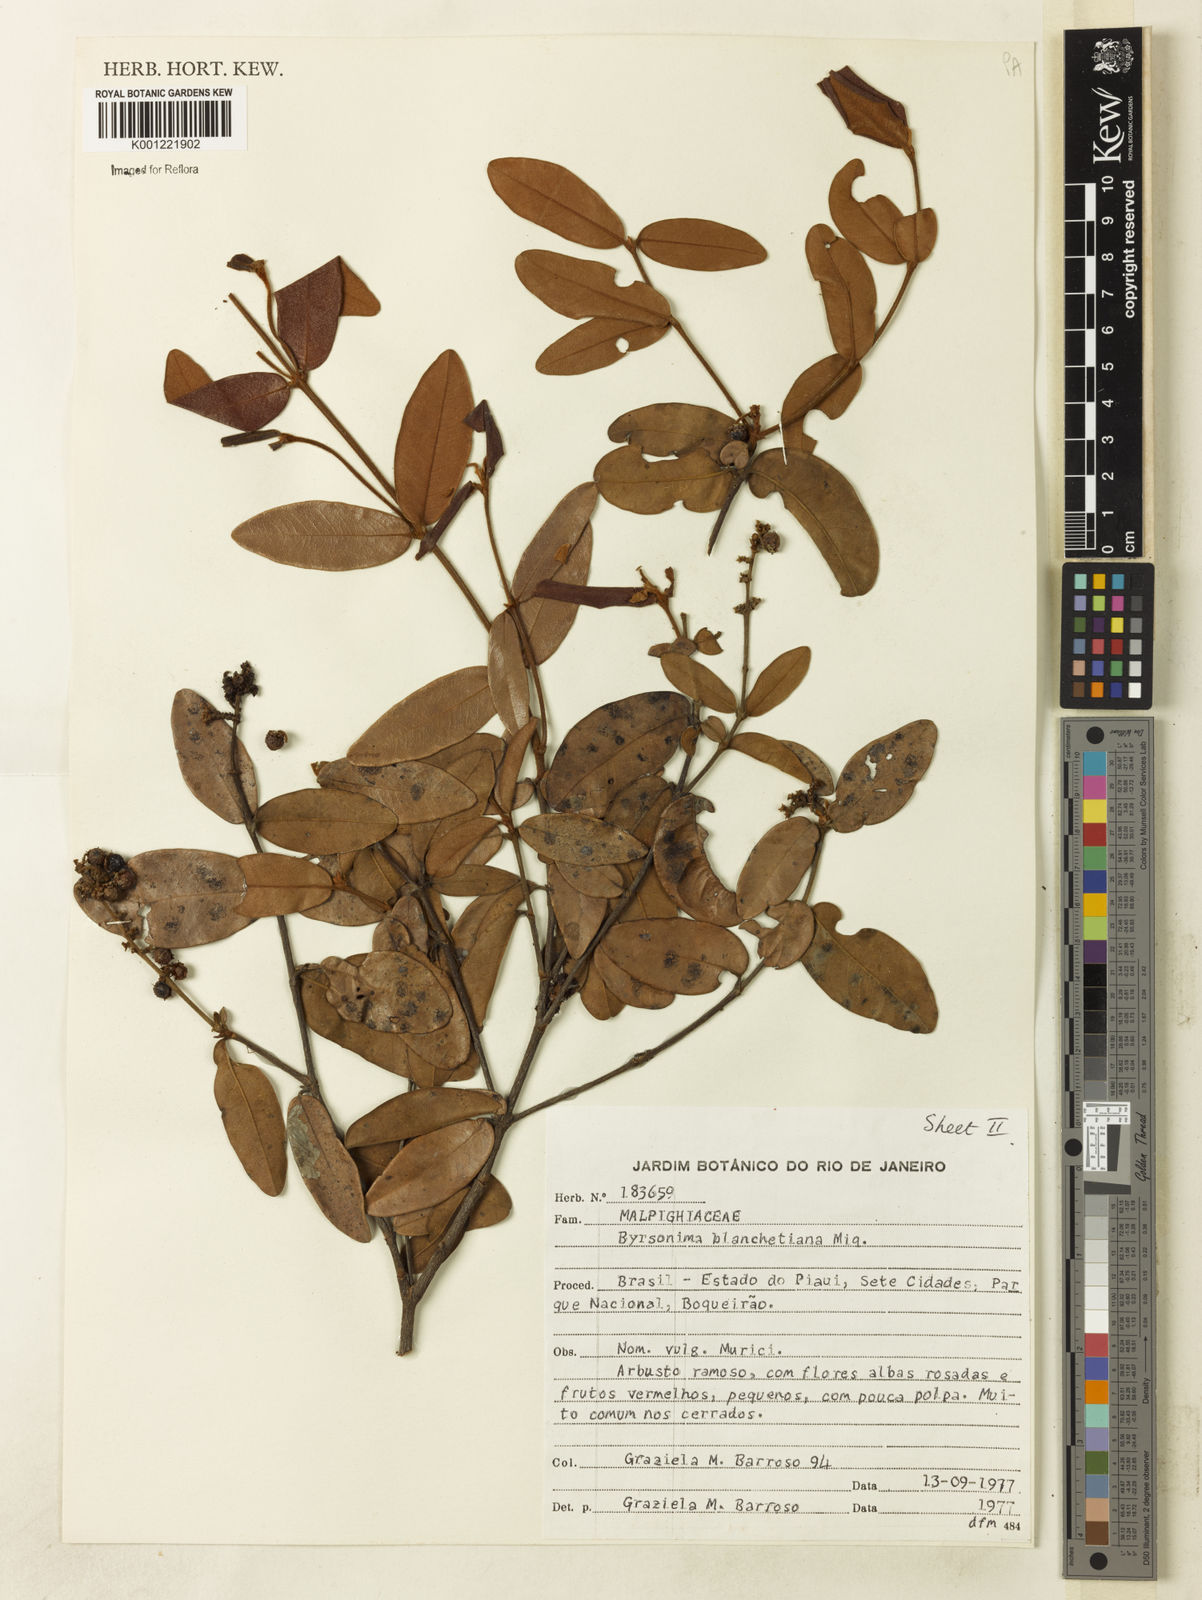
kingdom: Plantae
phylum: Tracheophyta
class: Magnoliopsida
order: Malpighiales
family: Malpighiaceae
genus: Byrsonima
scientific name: Byrsonima bicorniculata
